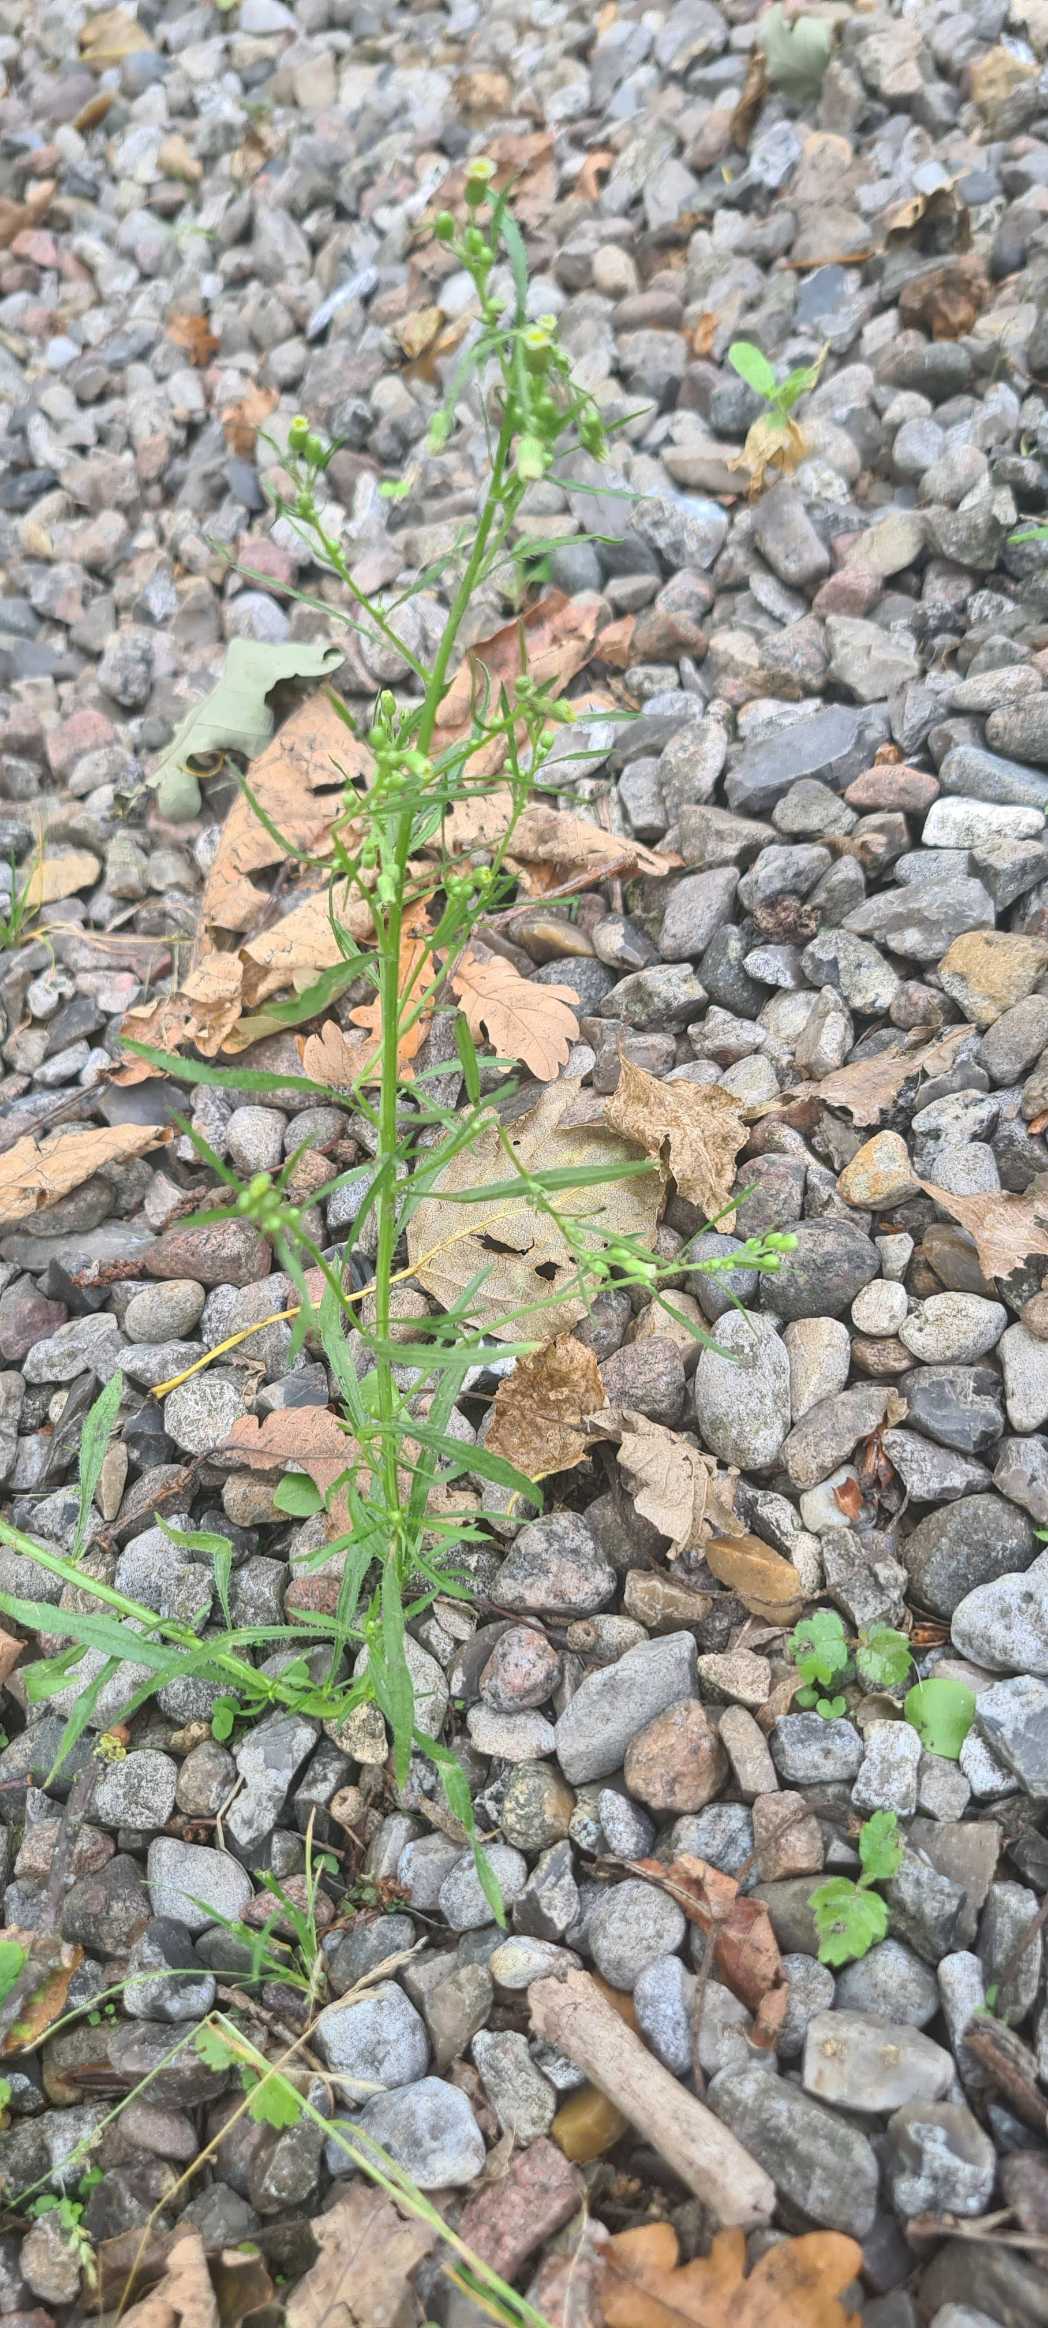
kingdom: Plantae
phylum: Tracheophyta
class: Magnoliopsida
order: Asterales
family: Asteraceae
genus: Erigeron
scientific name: Erigeron canadensis
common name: Kanadisk bakkestjerne
